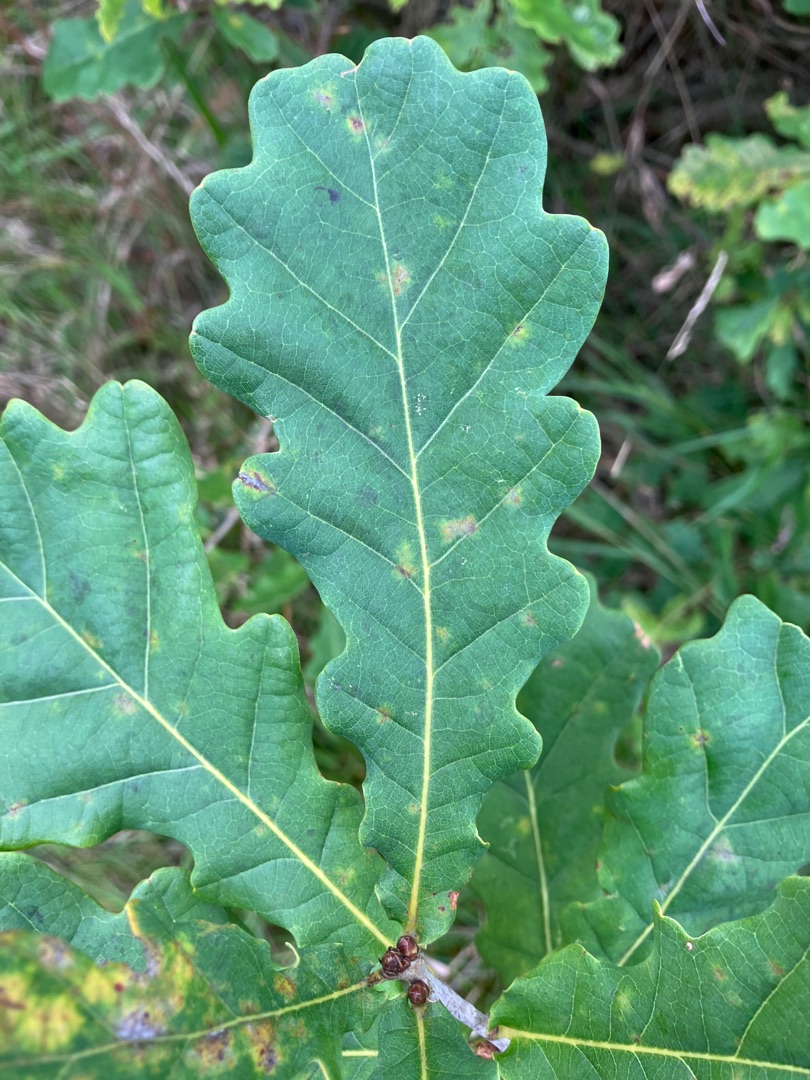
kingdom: Plantae
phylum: Tracheophyta
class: Magnoliopsida
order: Fagales
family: Fagaceae
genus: Quercus
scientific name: Quercus robur
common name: Stilk-eg/almindelig eg
